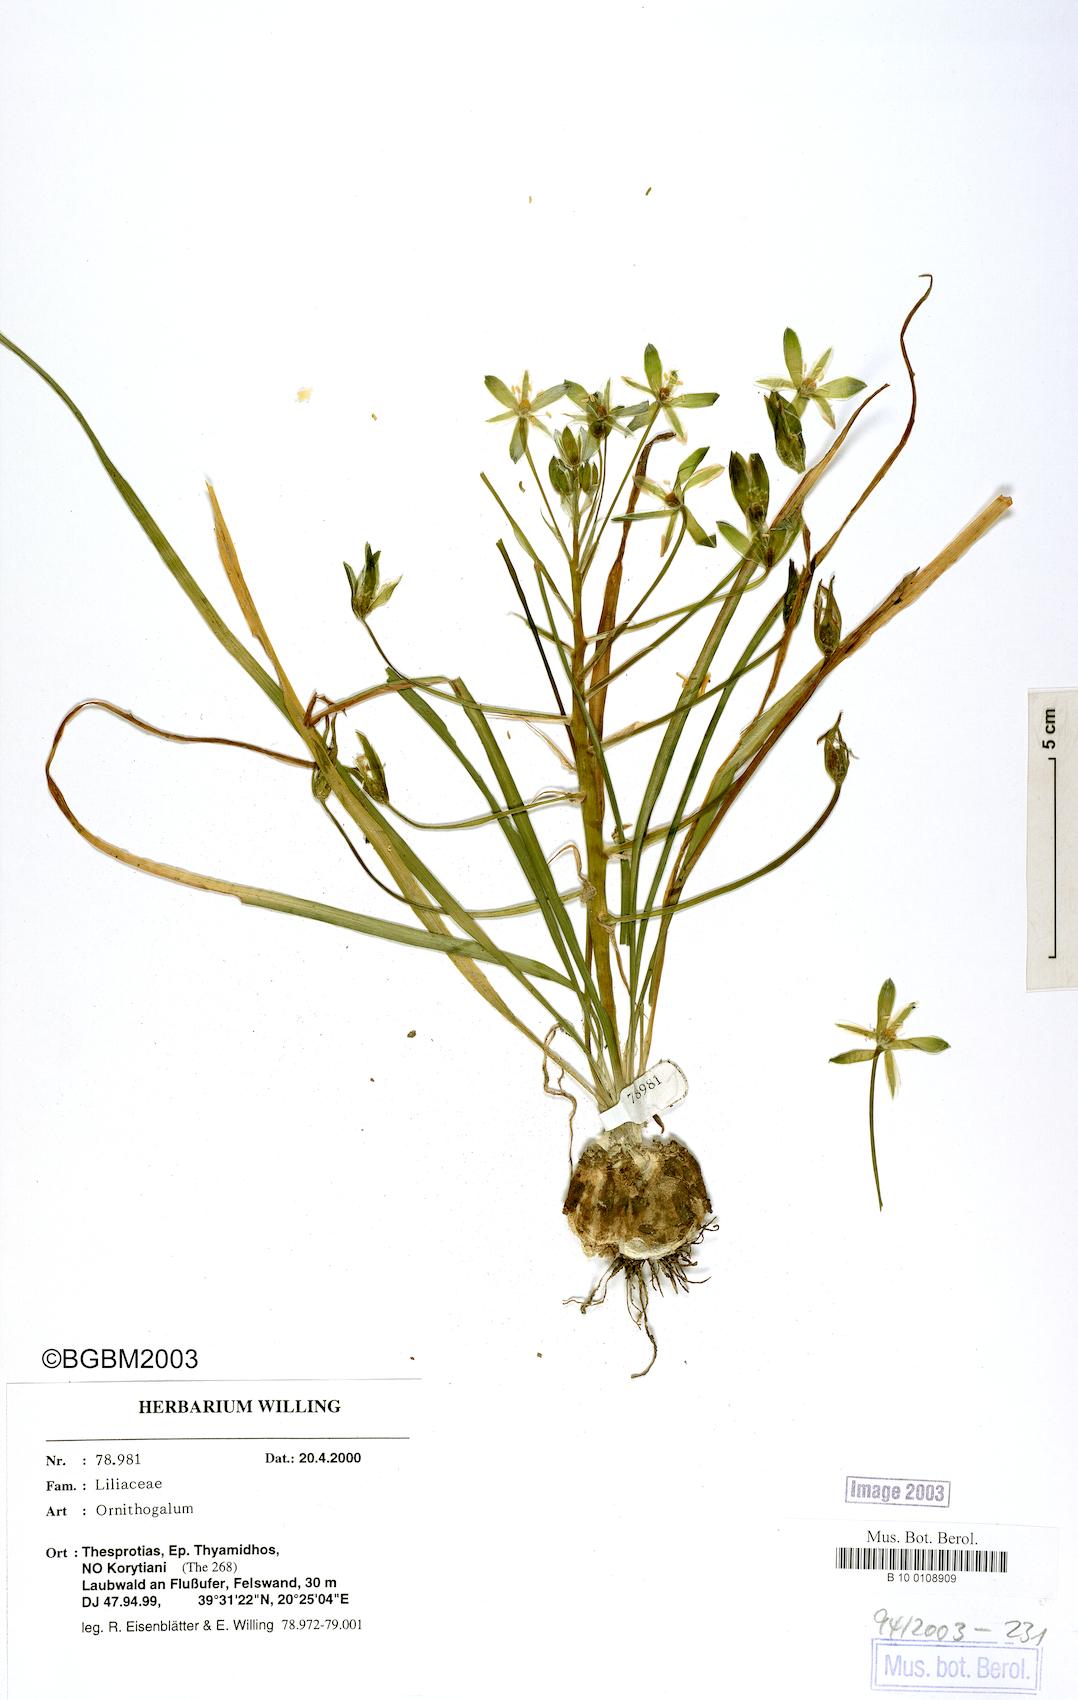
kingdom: Plantae
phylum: Tracheophyta
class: Liliopsida
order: Asparagales
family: Asparagaceae
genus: Ornithogalum
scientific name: Ornithogalum
